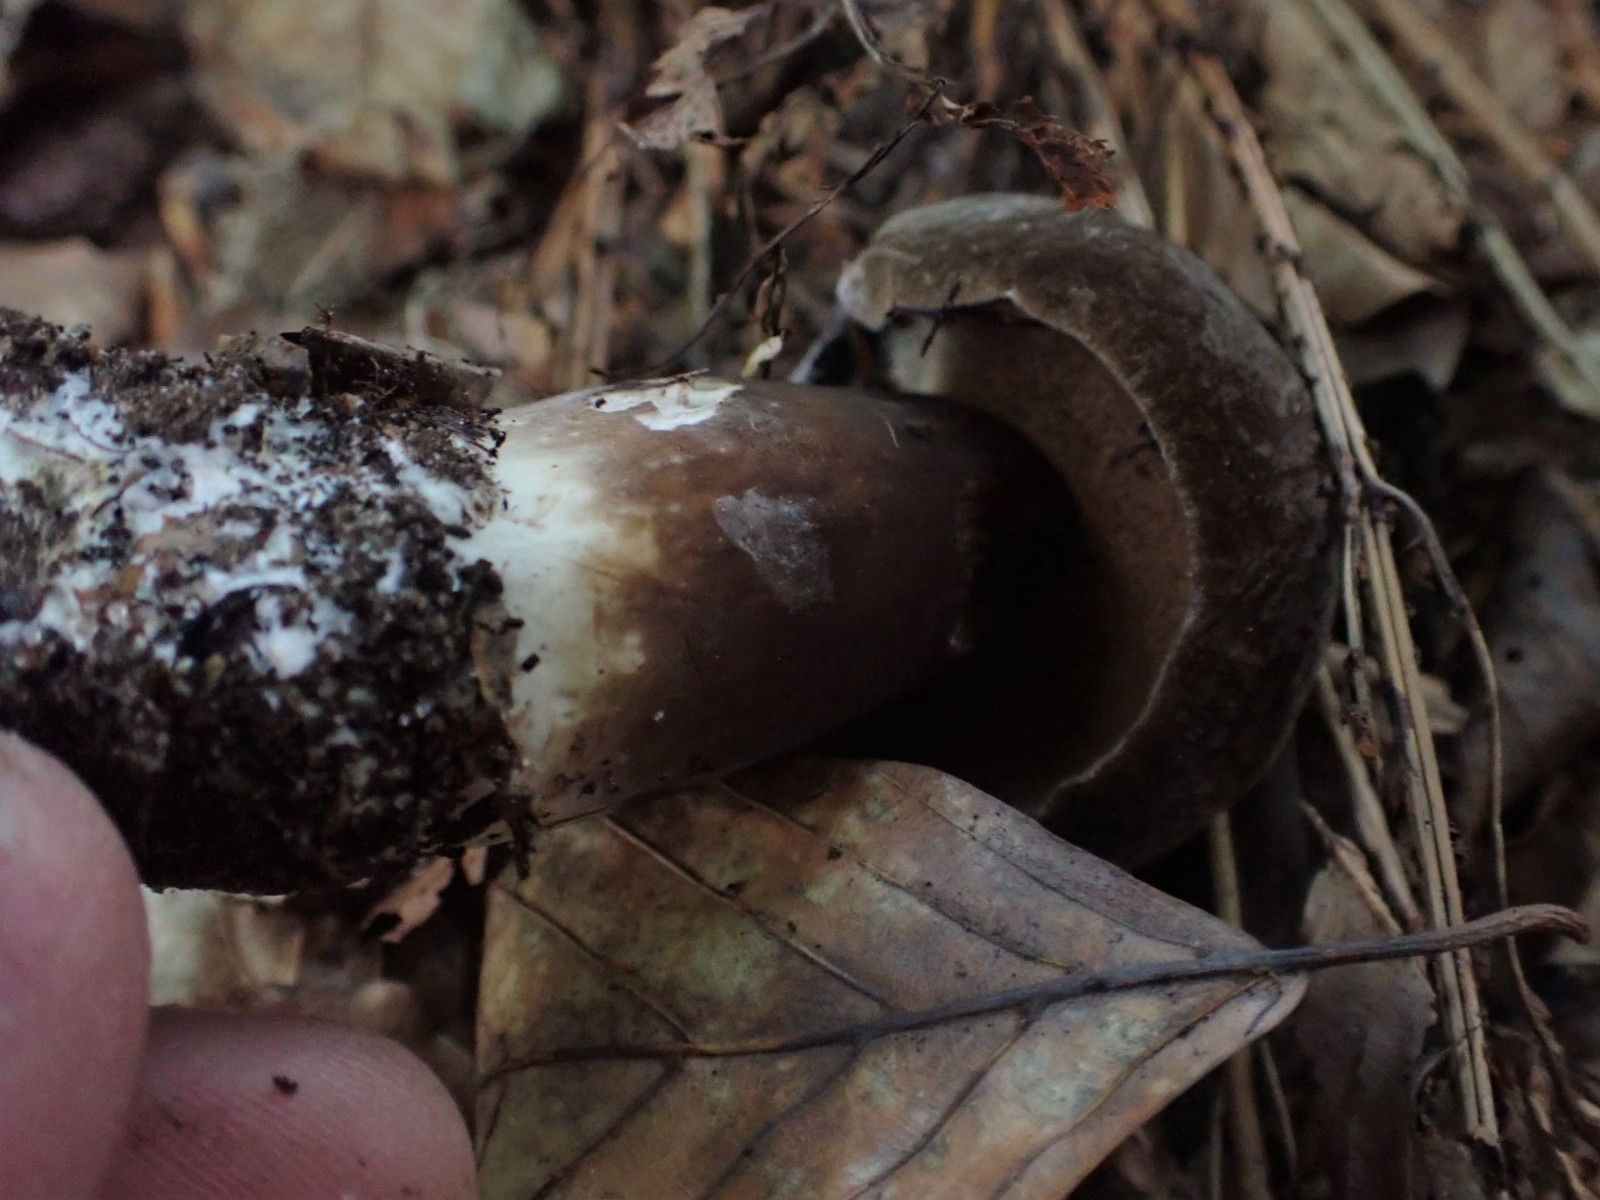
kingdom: Fungi
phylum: Basidiomycota
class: Agaricomycetes
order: Boletales
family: Boletaceae
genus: Porphyrellus
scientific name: Porphyrellus porphyrosporus
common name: sodrørhat
